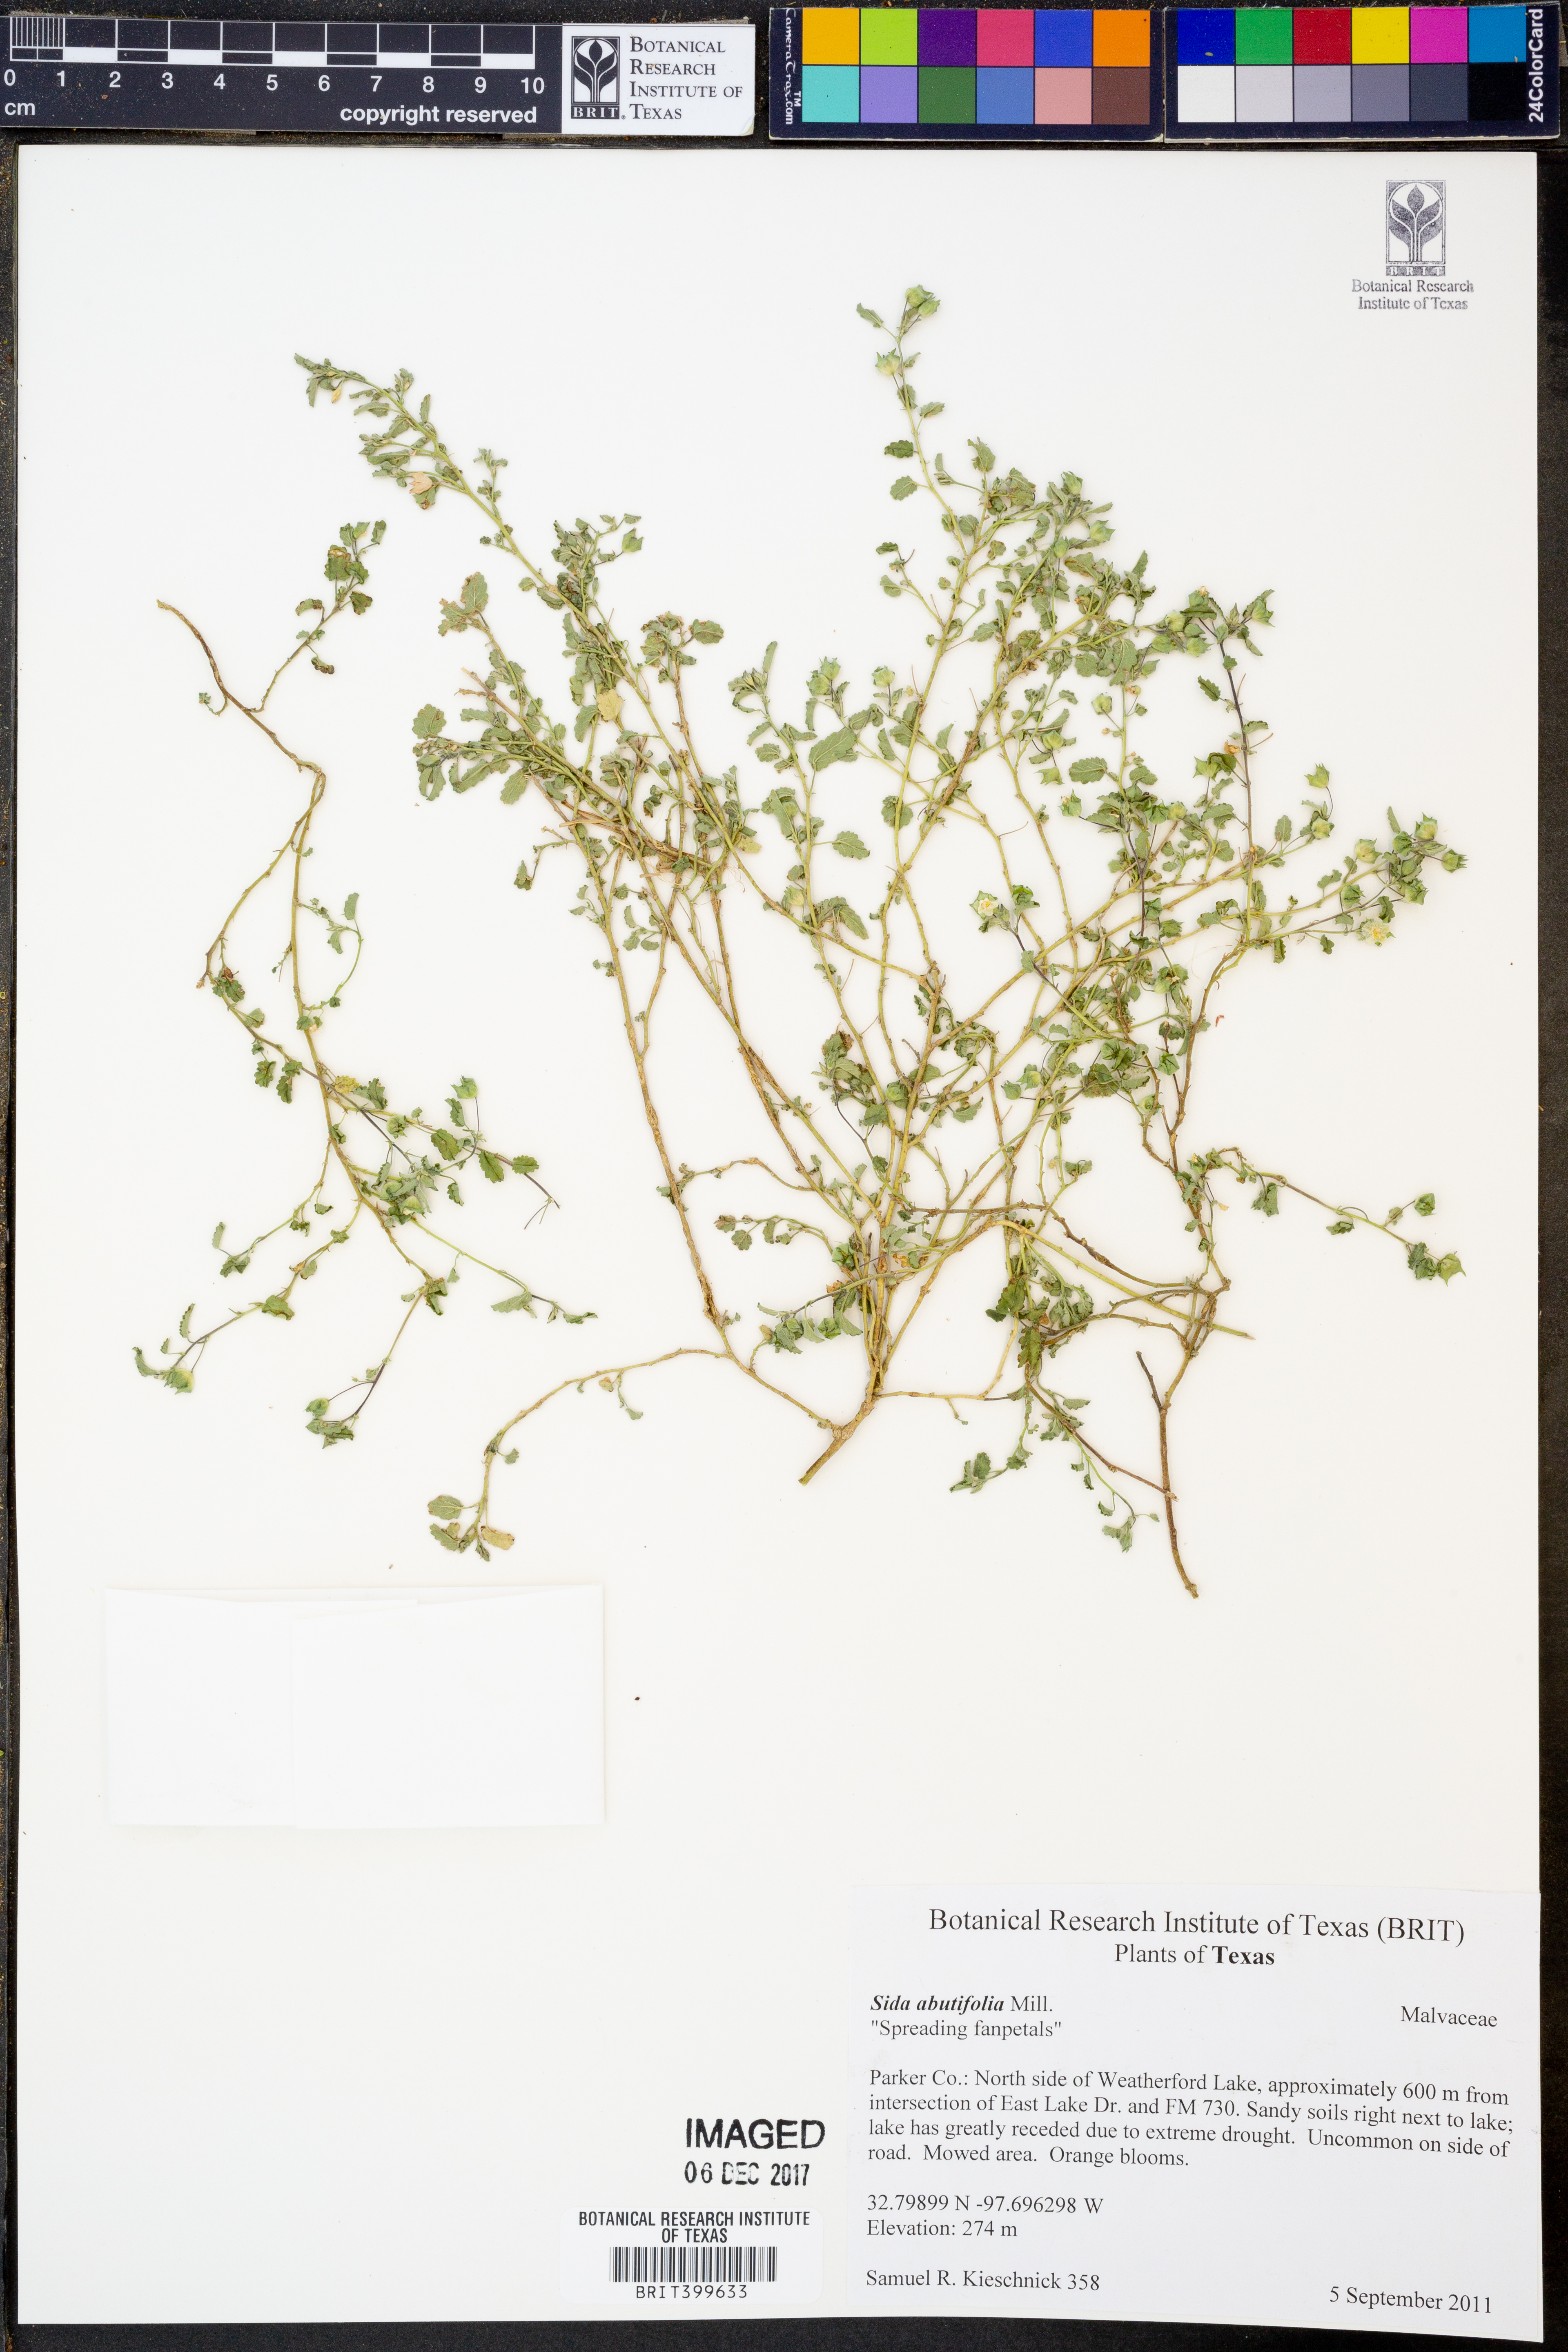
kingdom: Plantae
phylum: Tracheophyta
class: Magnoliopsida
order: Malvales
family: Malvaceae
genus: Sida
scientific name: Sida abutifolia
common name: Spreading fantails
